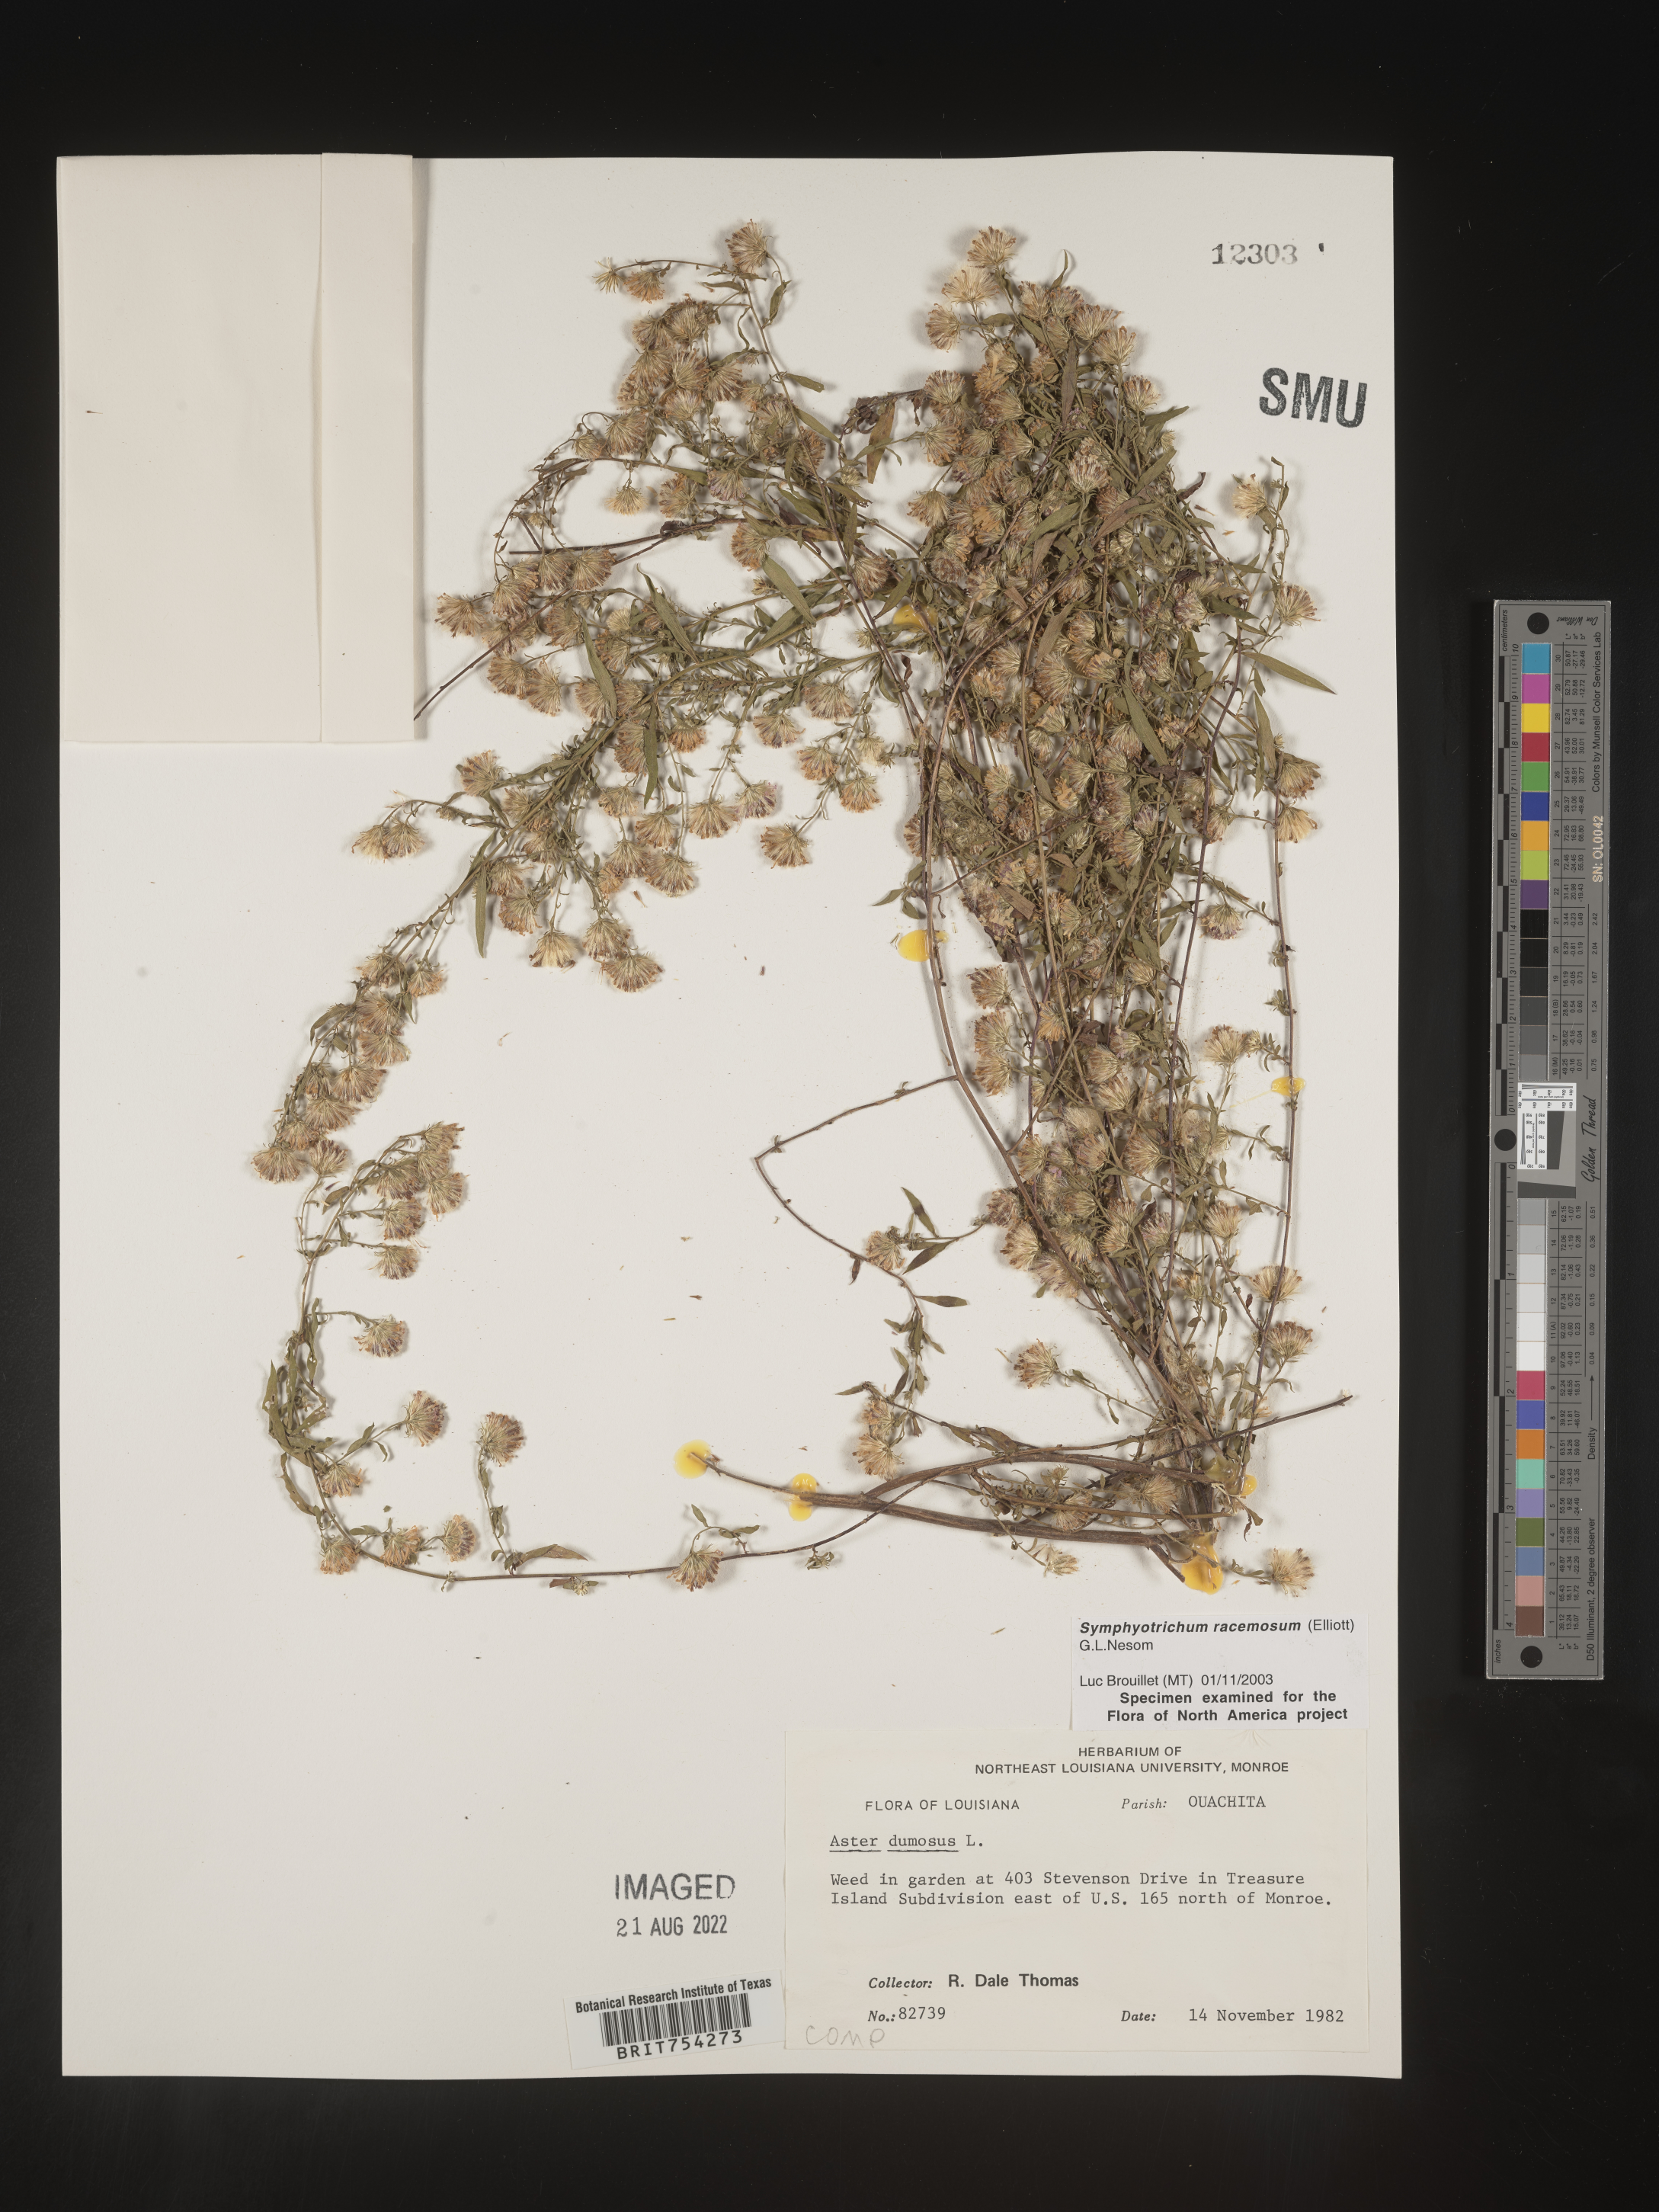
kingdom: Plantae
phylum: Tracheophyta
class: Magnoliopsida
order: Asterales
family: Asteraceae
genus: Symphyotrichum
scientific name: Symphyotrichum racemosum
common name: Small white aster
